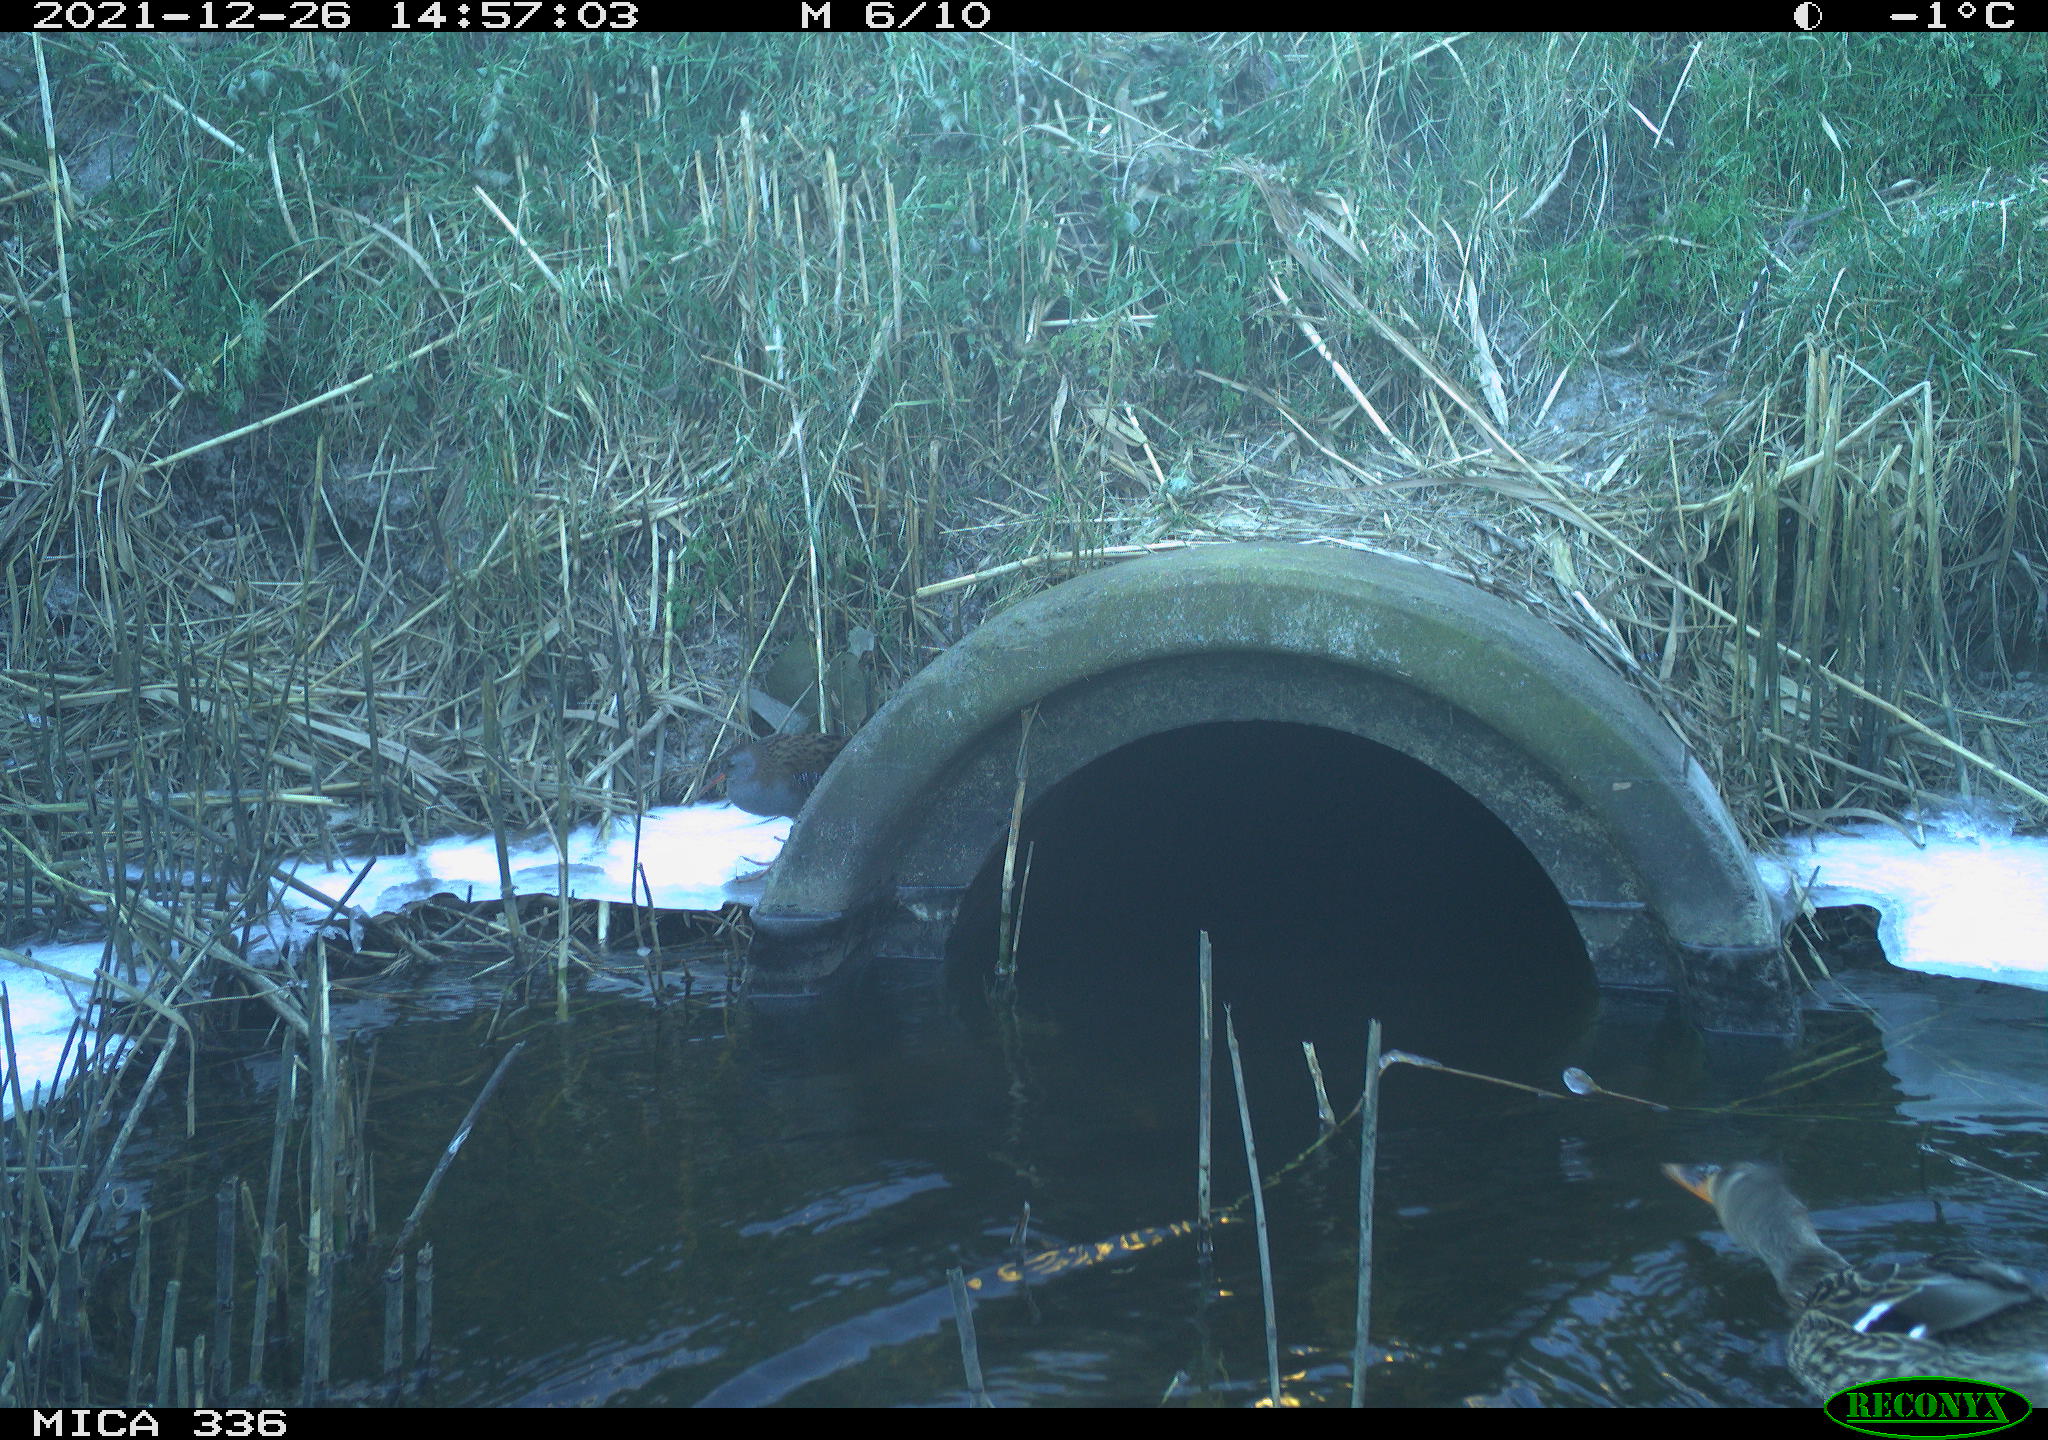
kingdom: Animalia
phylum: Chordata
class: Aves
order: Gruiformes
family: Rallidae
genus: Gallinula
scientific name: Gallinula chloropus
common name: Common moorhen
